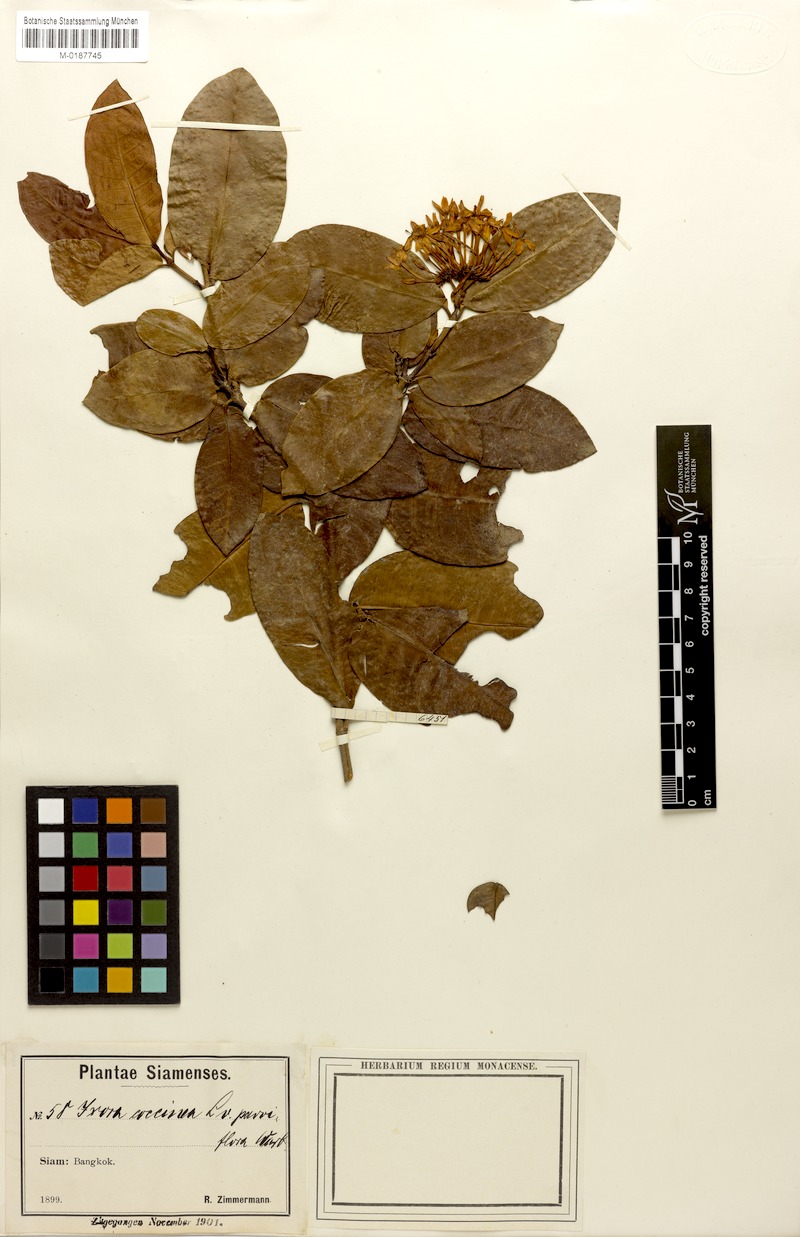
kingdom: Plantae
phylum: Tracheophyta
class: Magnoliopsida
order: Gentianales
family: Rubiaceae
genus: Ixora
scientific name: Ixora coccinea
